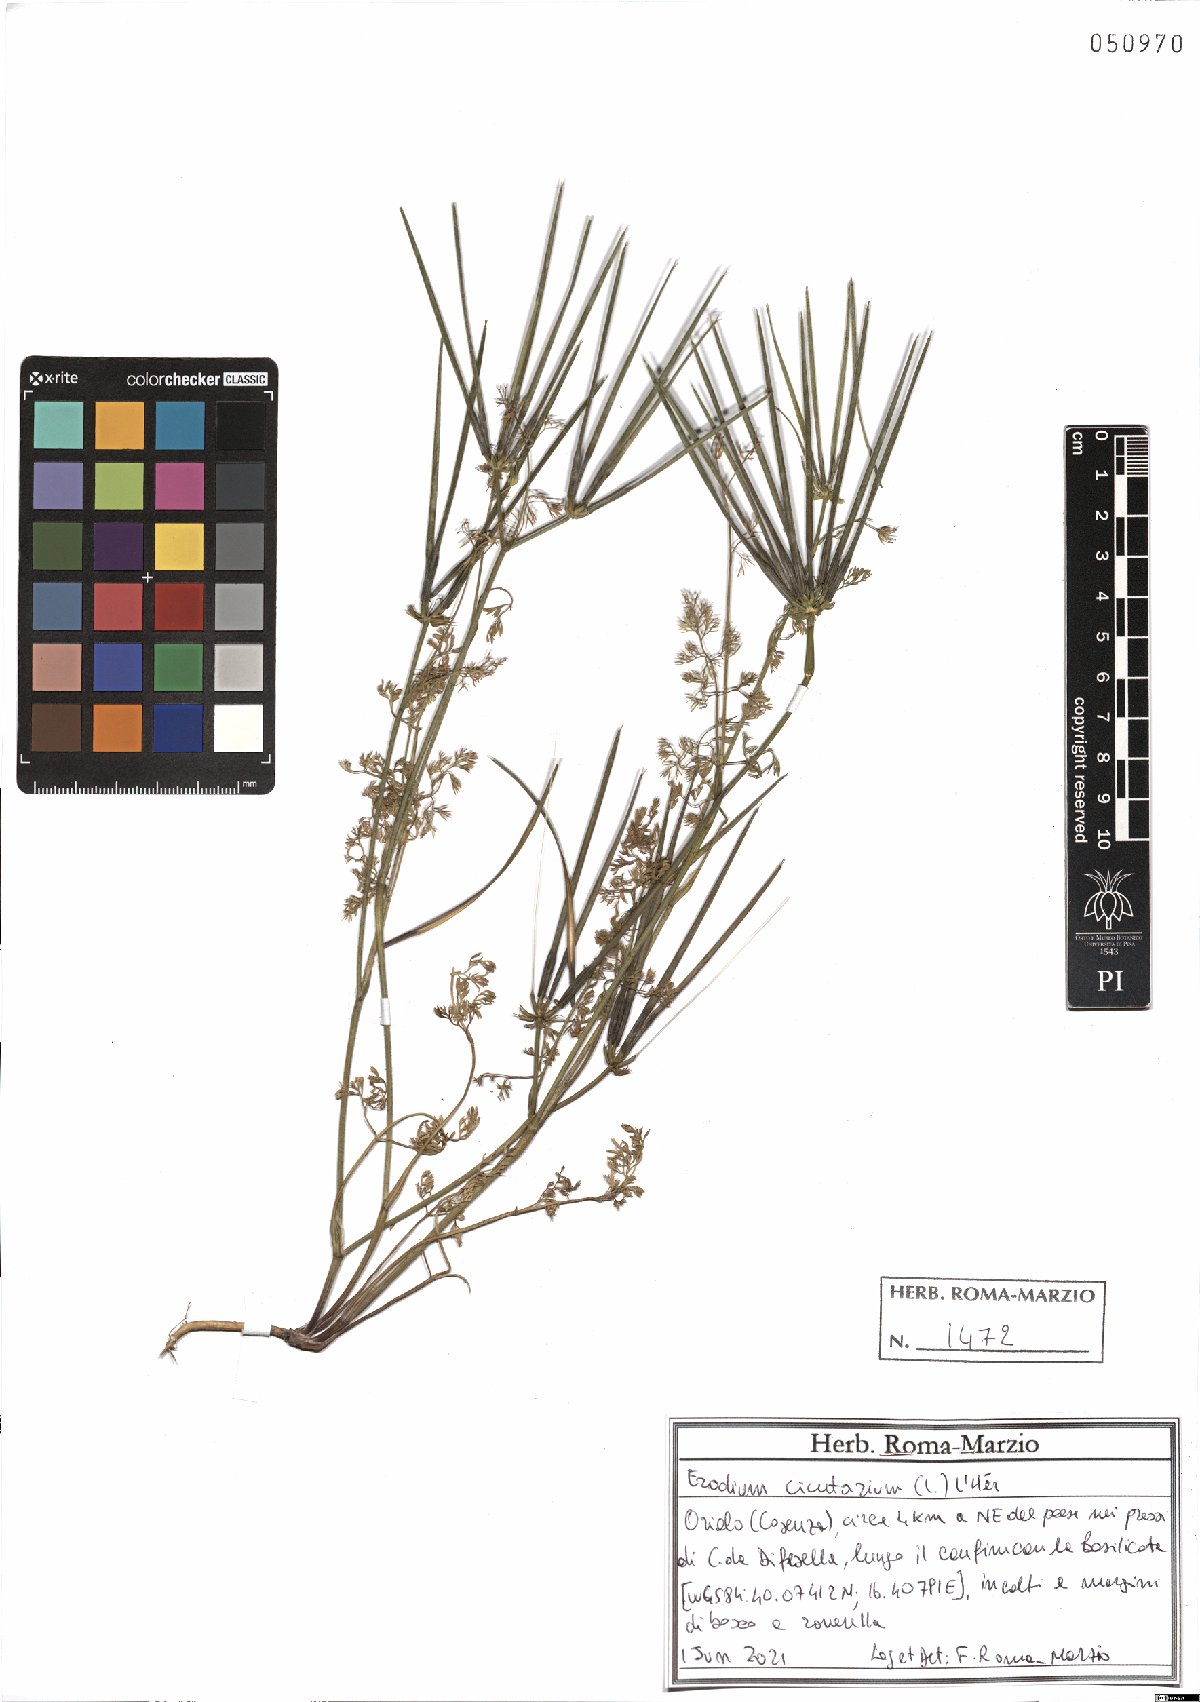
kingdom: Plantae
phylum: Tracheophyta
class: Magnoliopsida
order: Geraniales
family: Geraniaceae
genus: Erodium
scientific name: Erodium cicutarium
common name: Common stork's-bill
